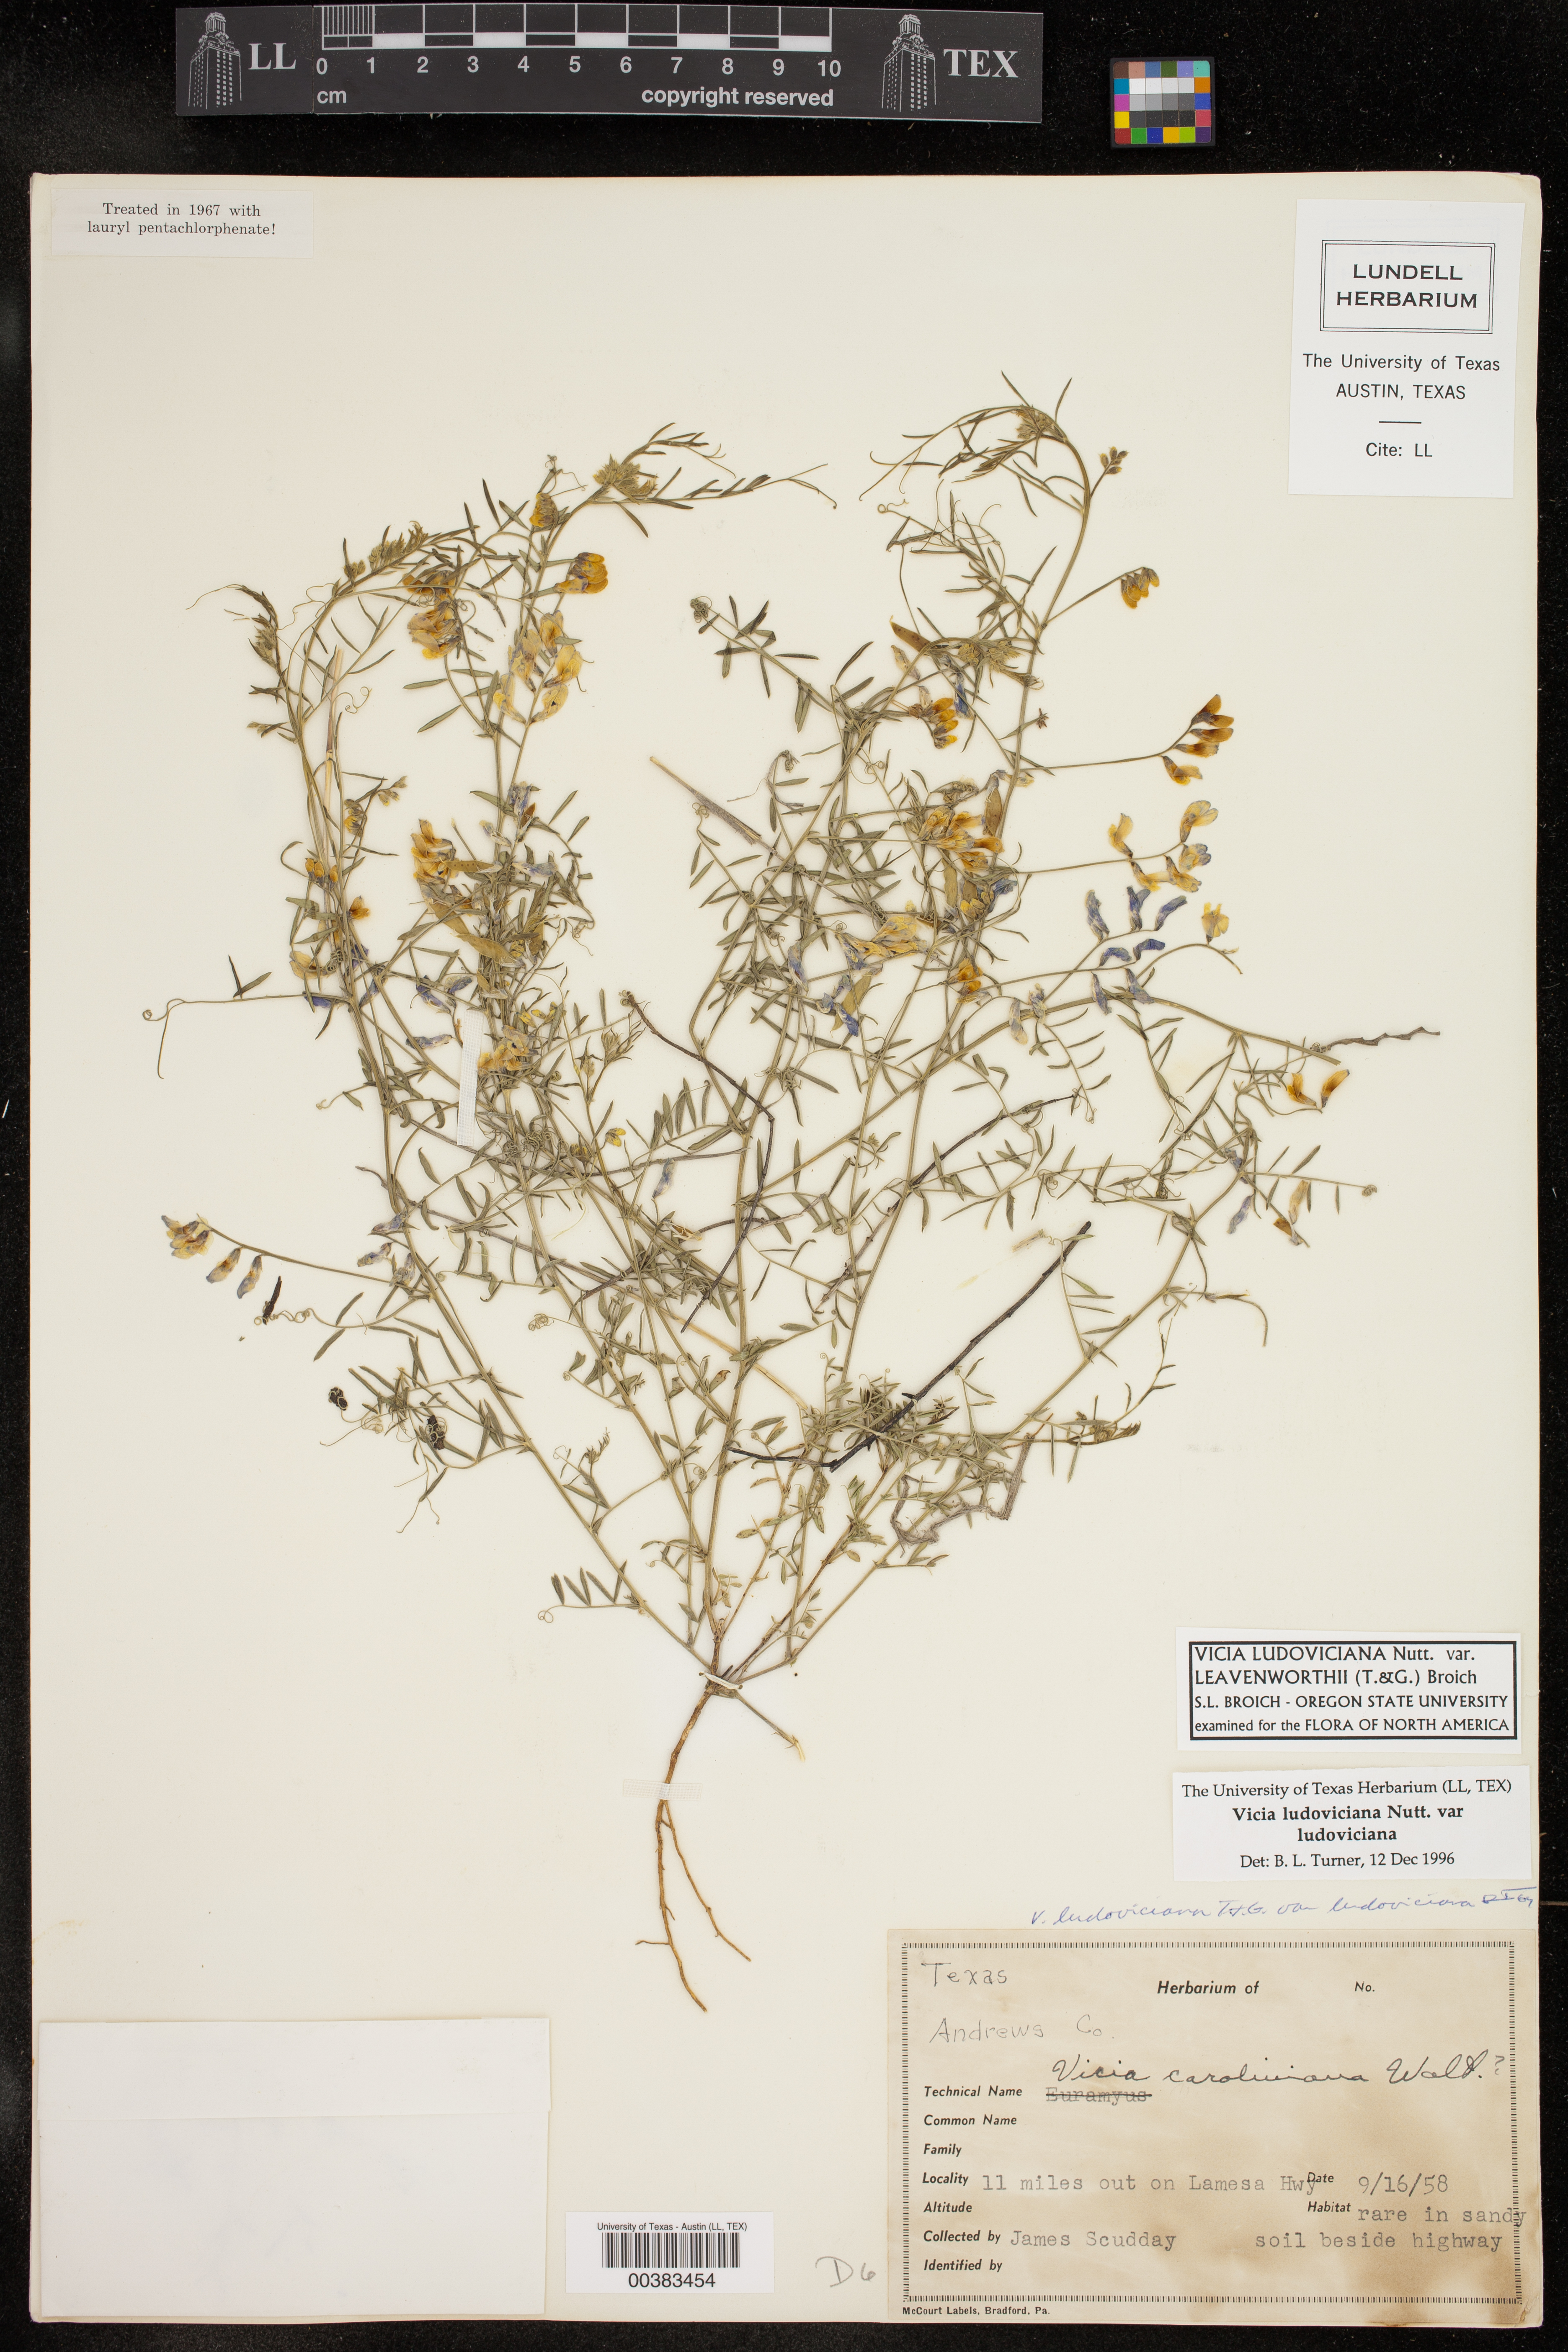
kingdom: Plantae
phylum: Tracheophyta
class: Magnoliopsida
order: Fabales
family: Fabaceae
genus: Vicia
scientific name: Vicia ludoviciana
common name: Louisiana vetch
